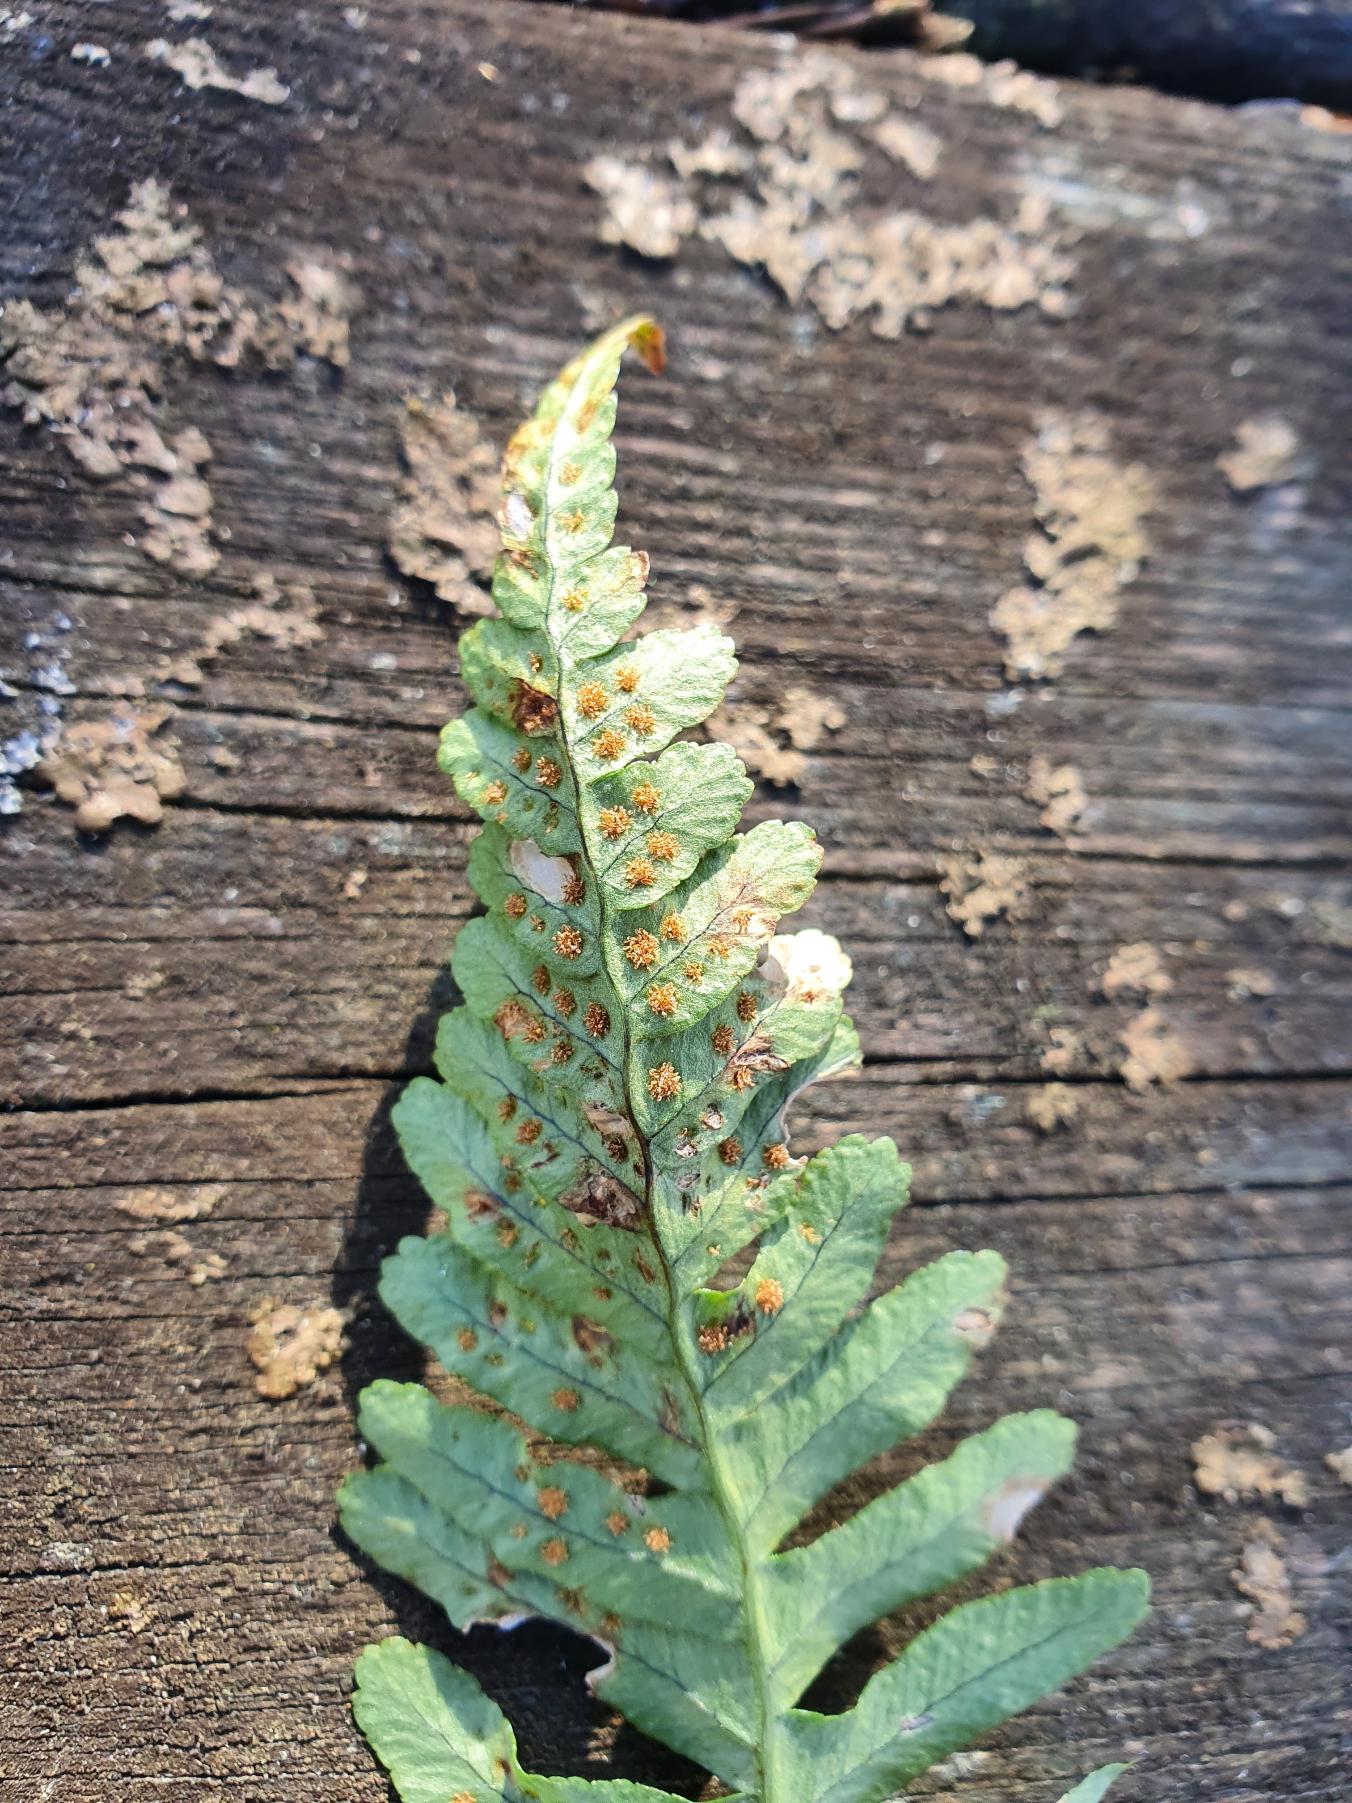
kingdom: Plantae
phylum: Tracheophyta
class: Polypodiopsida
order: Polypodiales
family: Polypodiaceae
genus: Polypodium
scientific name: Polypodium vulgare
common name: Almindelig engelsød
